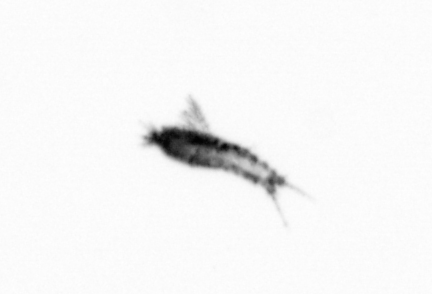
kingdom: Animalia
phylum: Arthropoda
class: Copepoda
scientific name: Copepoda
